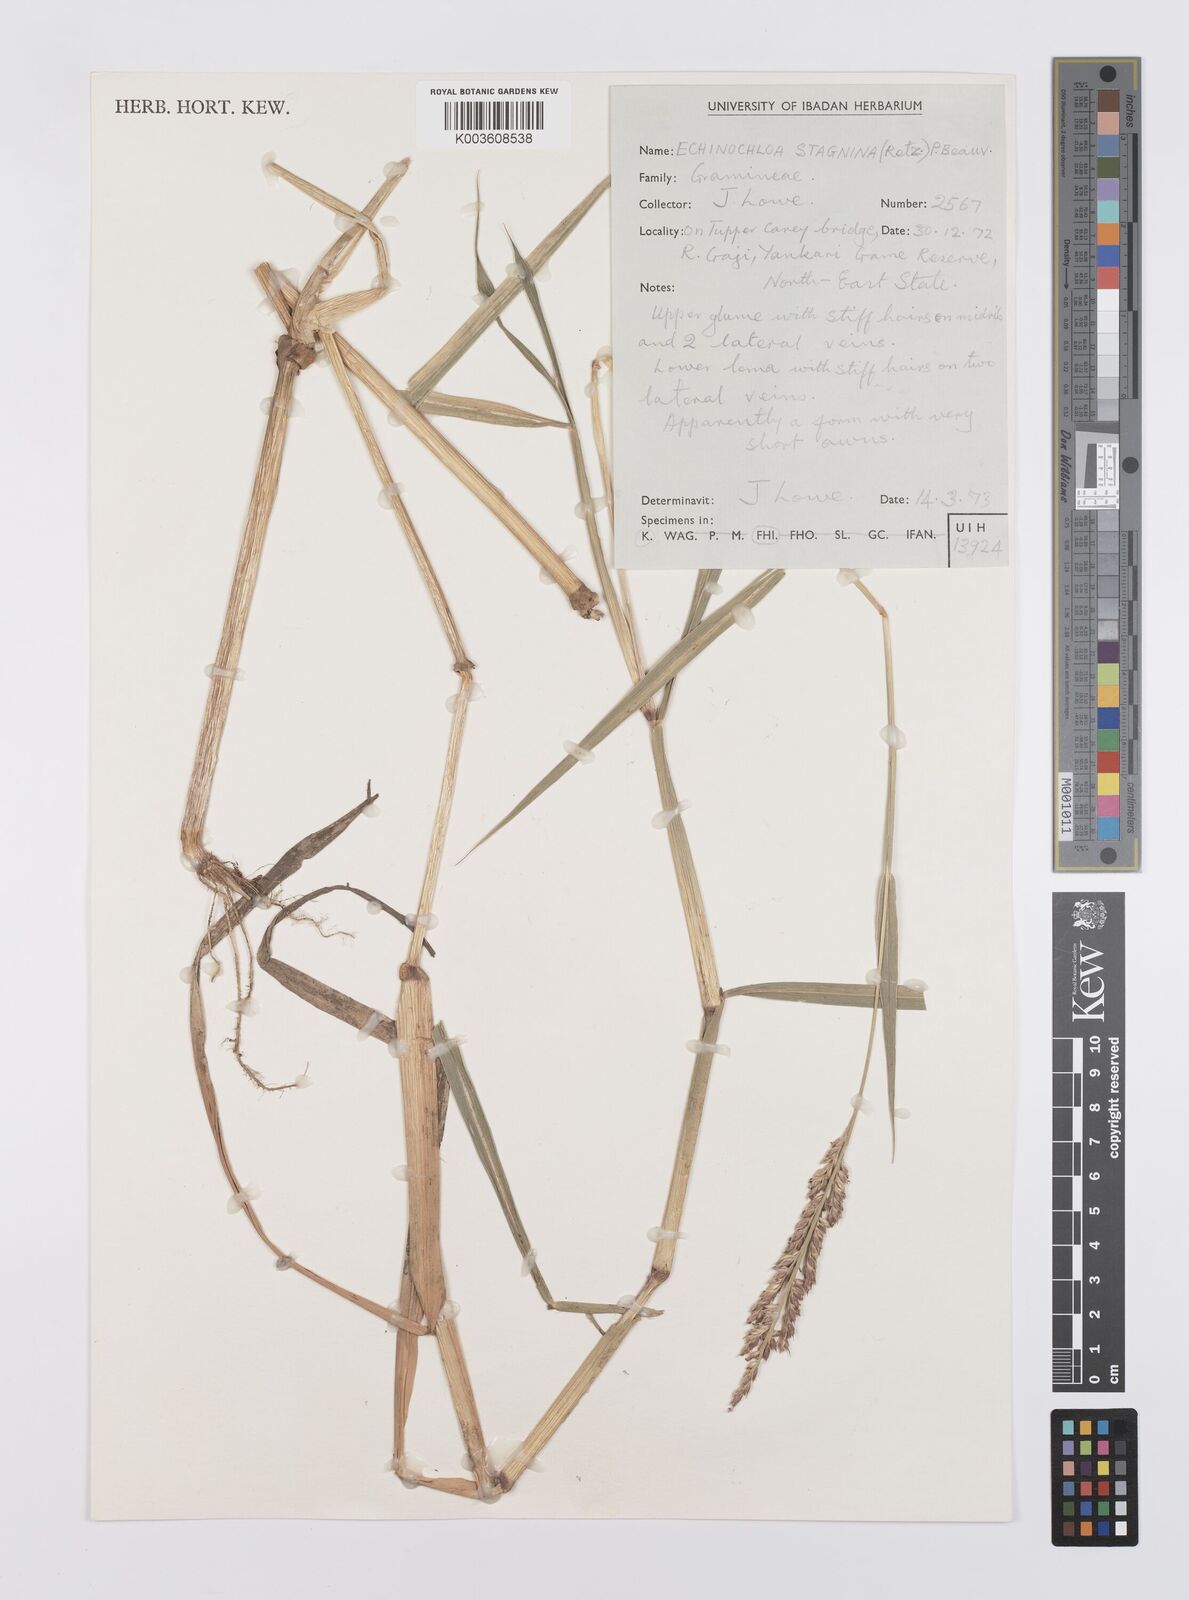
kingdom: Plantae
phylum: Tracheophyta
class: Liliopsida
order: Poales
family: Poaceae
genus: Echinochloa
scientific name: Echinochloa stagnina
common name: Burgu grass
